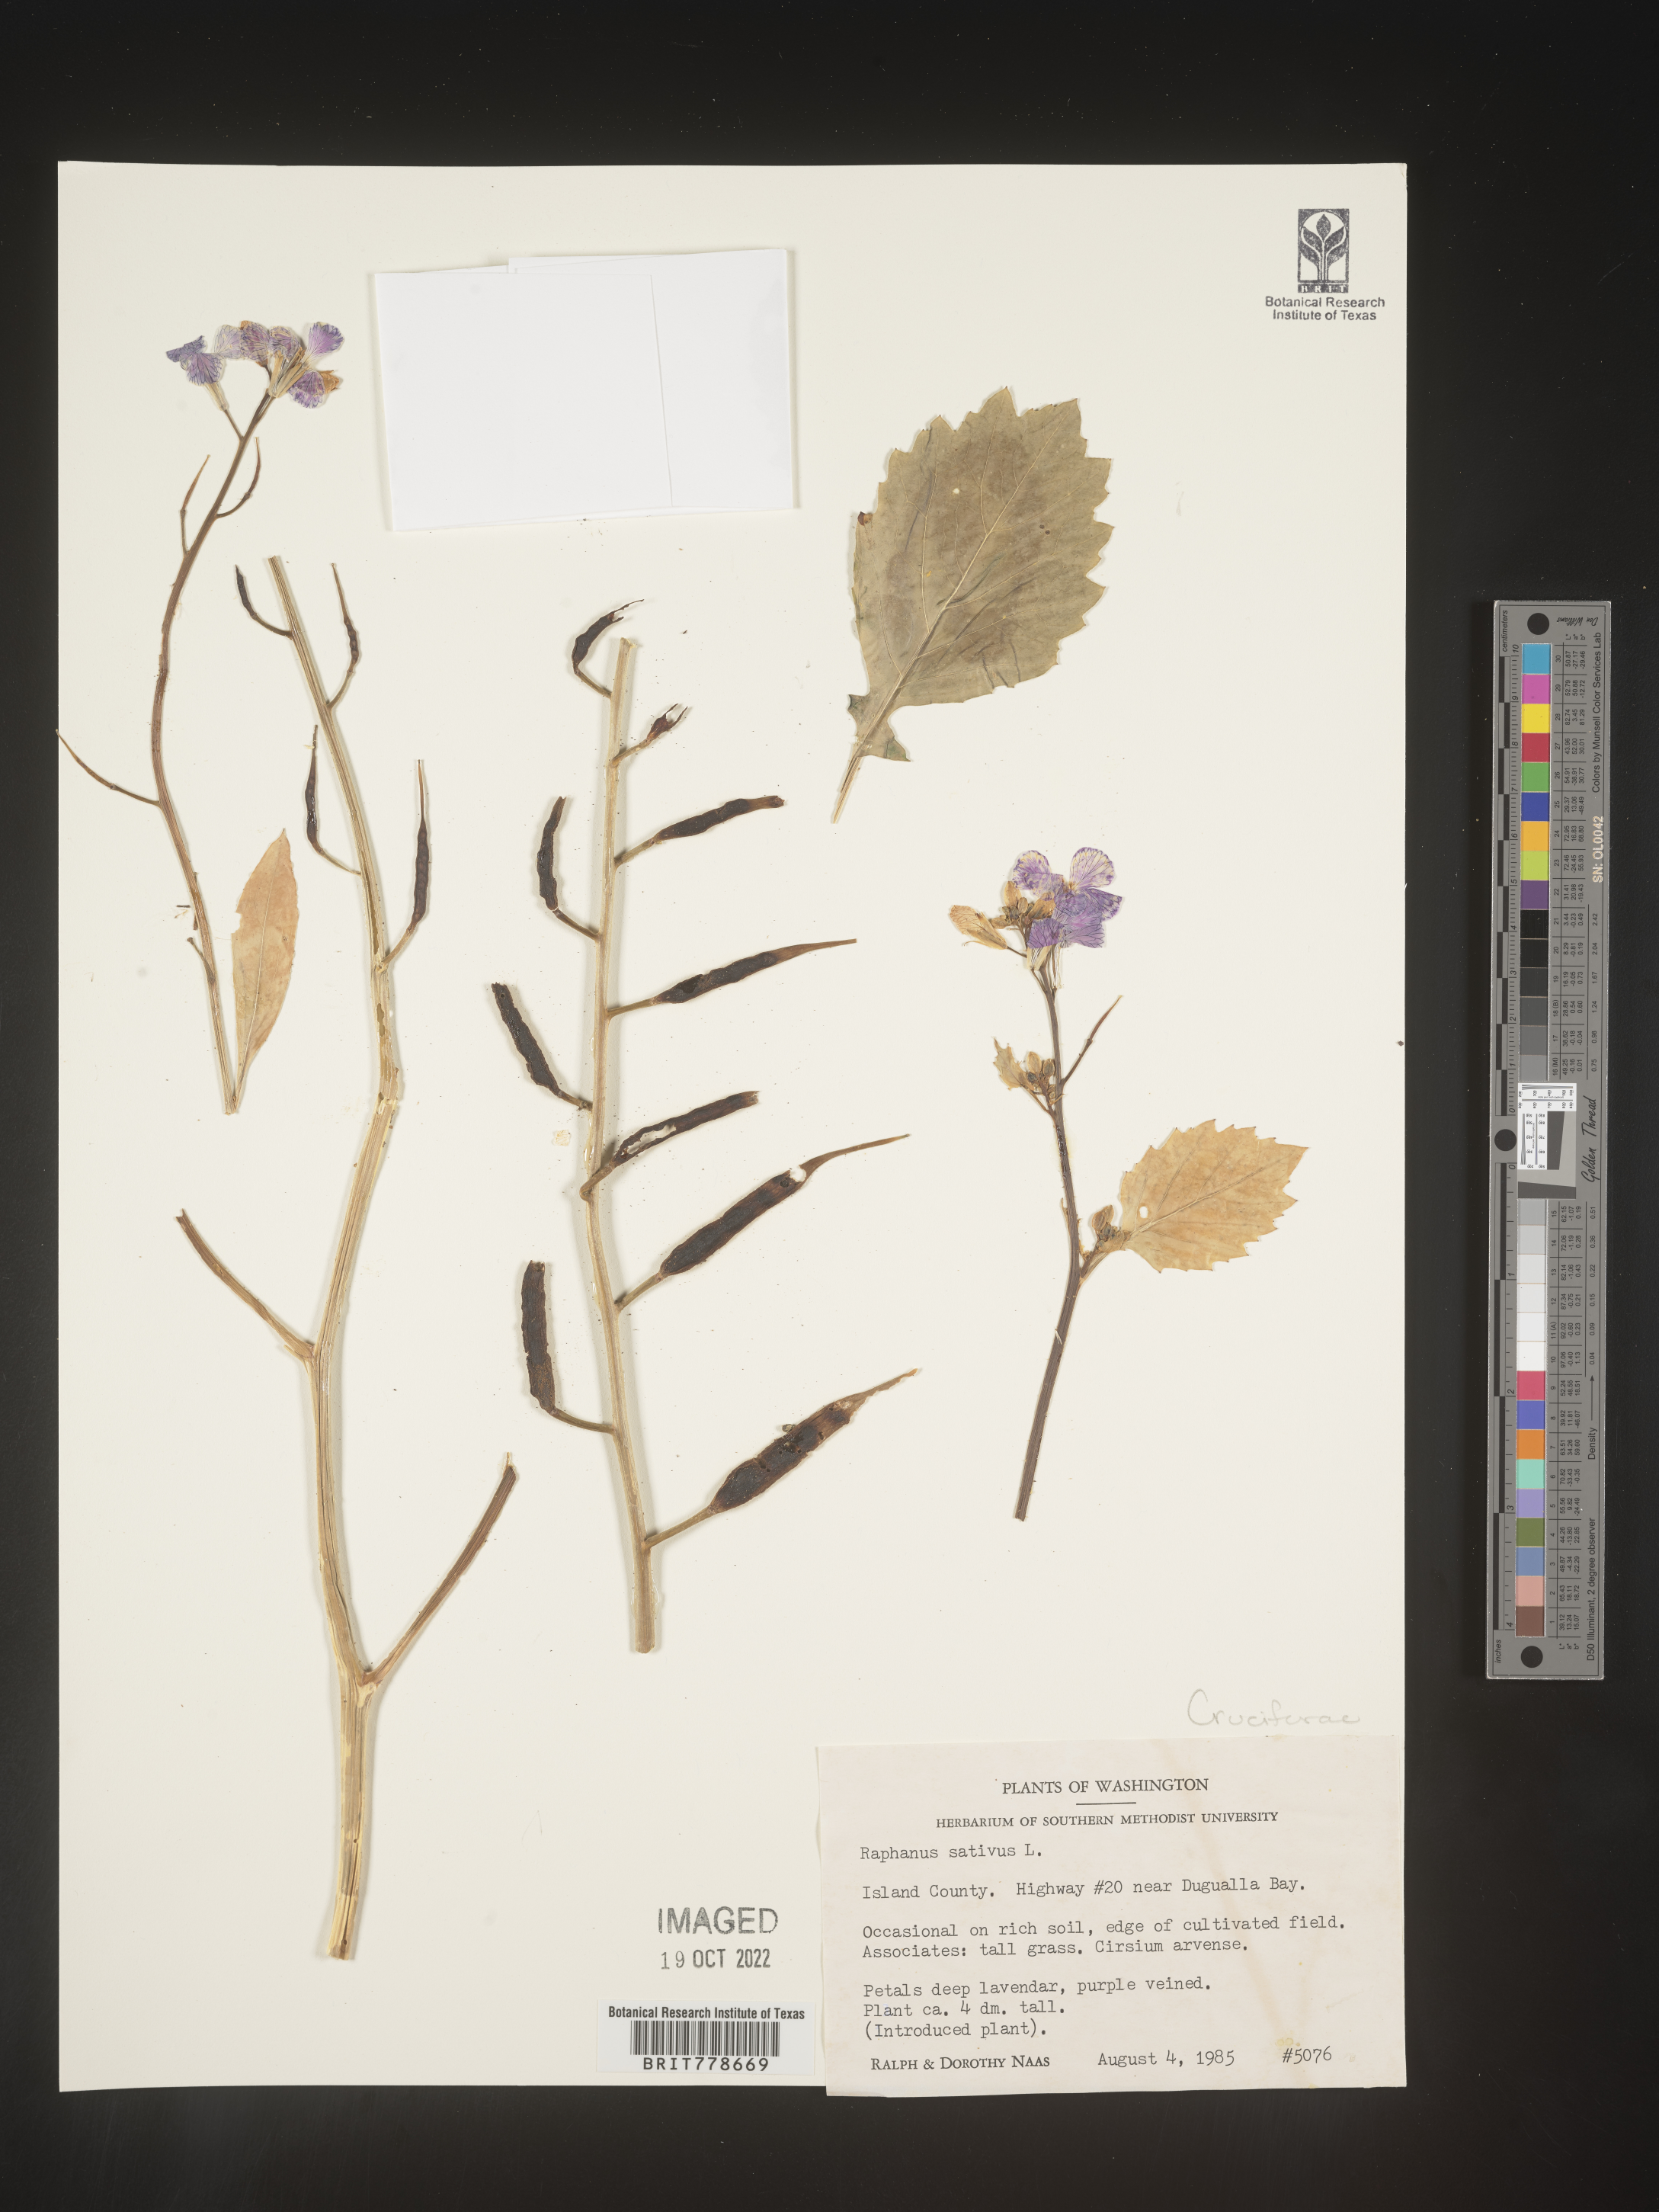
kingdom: Plantae
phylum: Tracheophyta
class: Magnoliopsida
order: Brassicales
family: Brassicaceae
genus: Raphanus
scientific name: Raphanus sativus
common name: Cultivated radish
